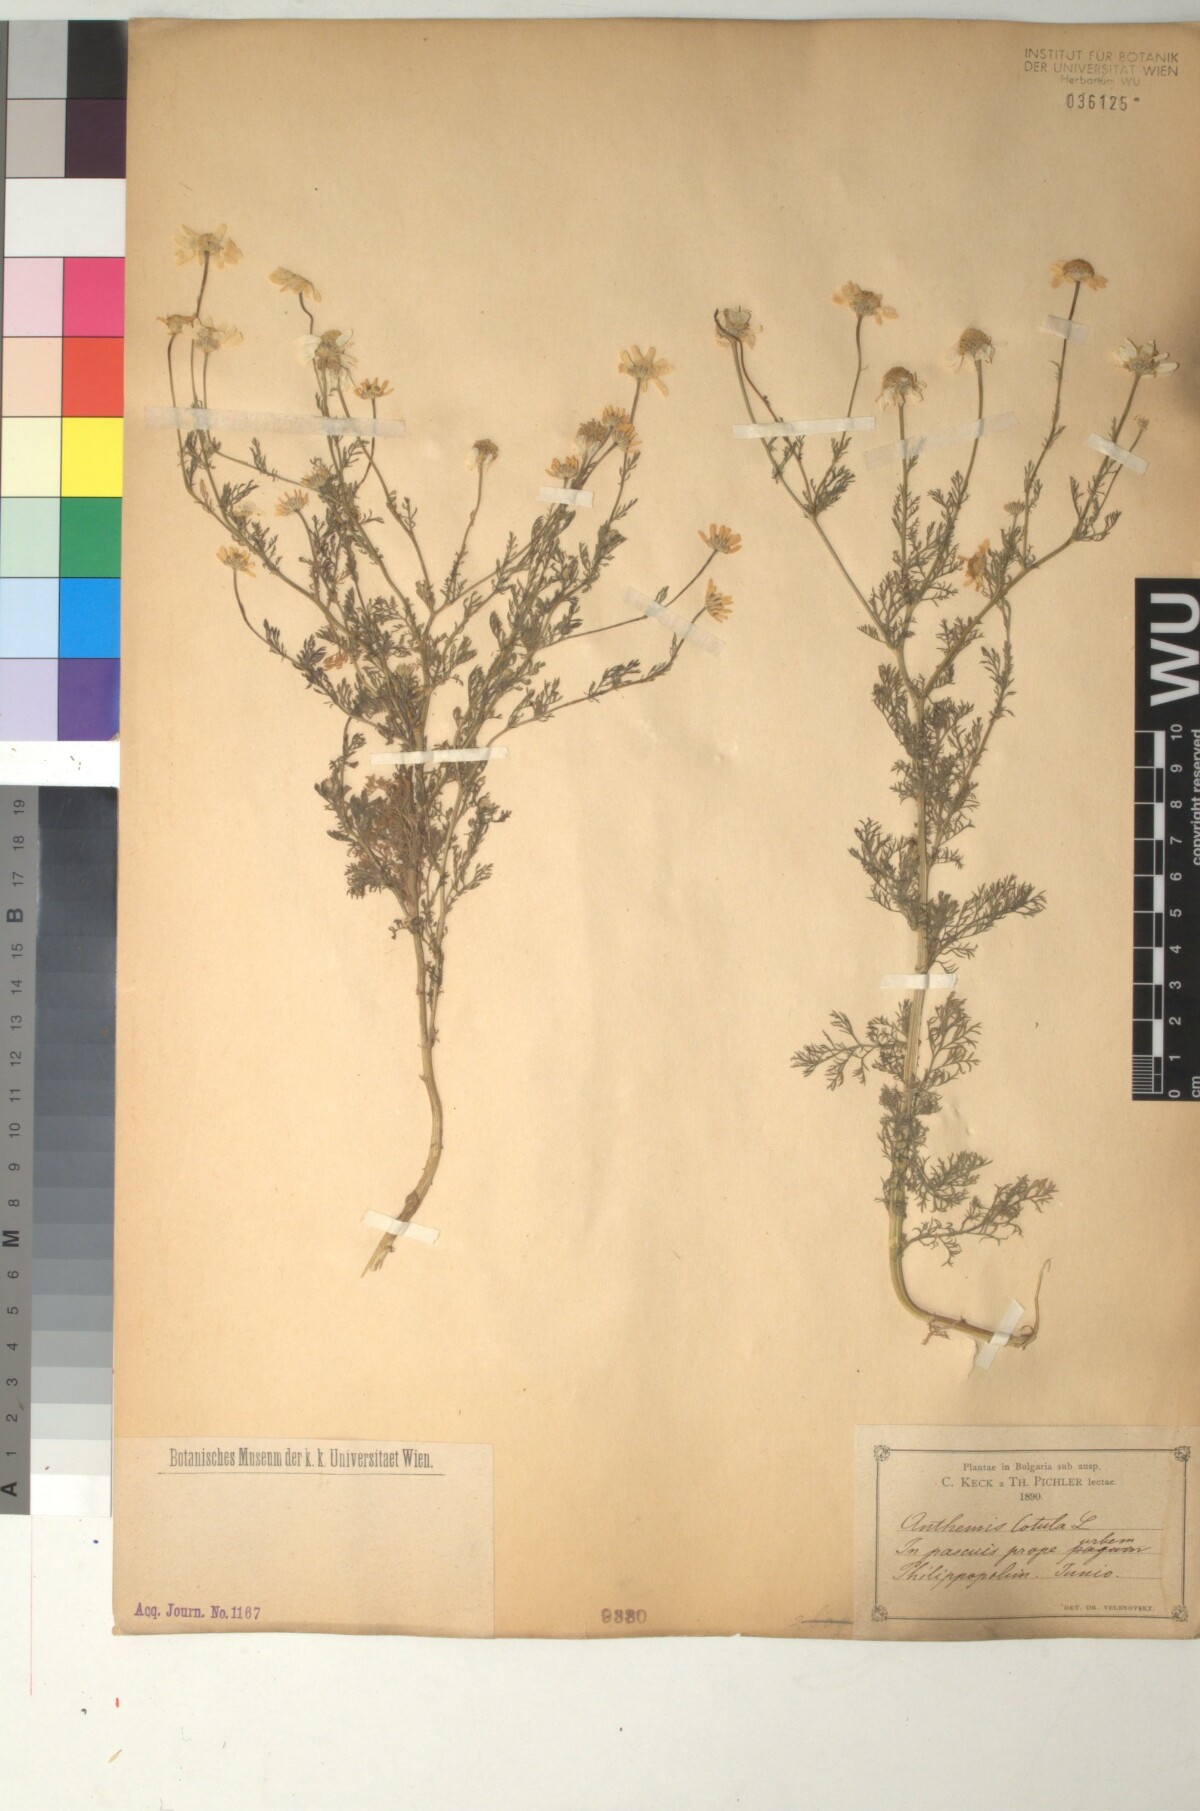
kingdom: Plantae
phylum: Tracheophyta
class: Magnoliopsida
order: Asterales
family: Asteraceae
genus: Anthemis
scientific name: Anthemis cotula
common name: Stinking chamomile
